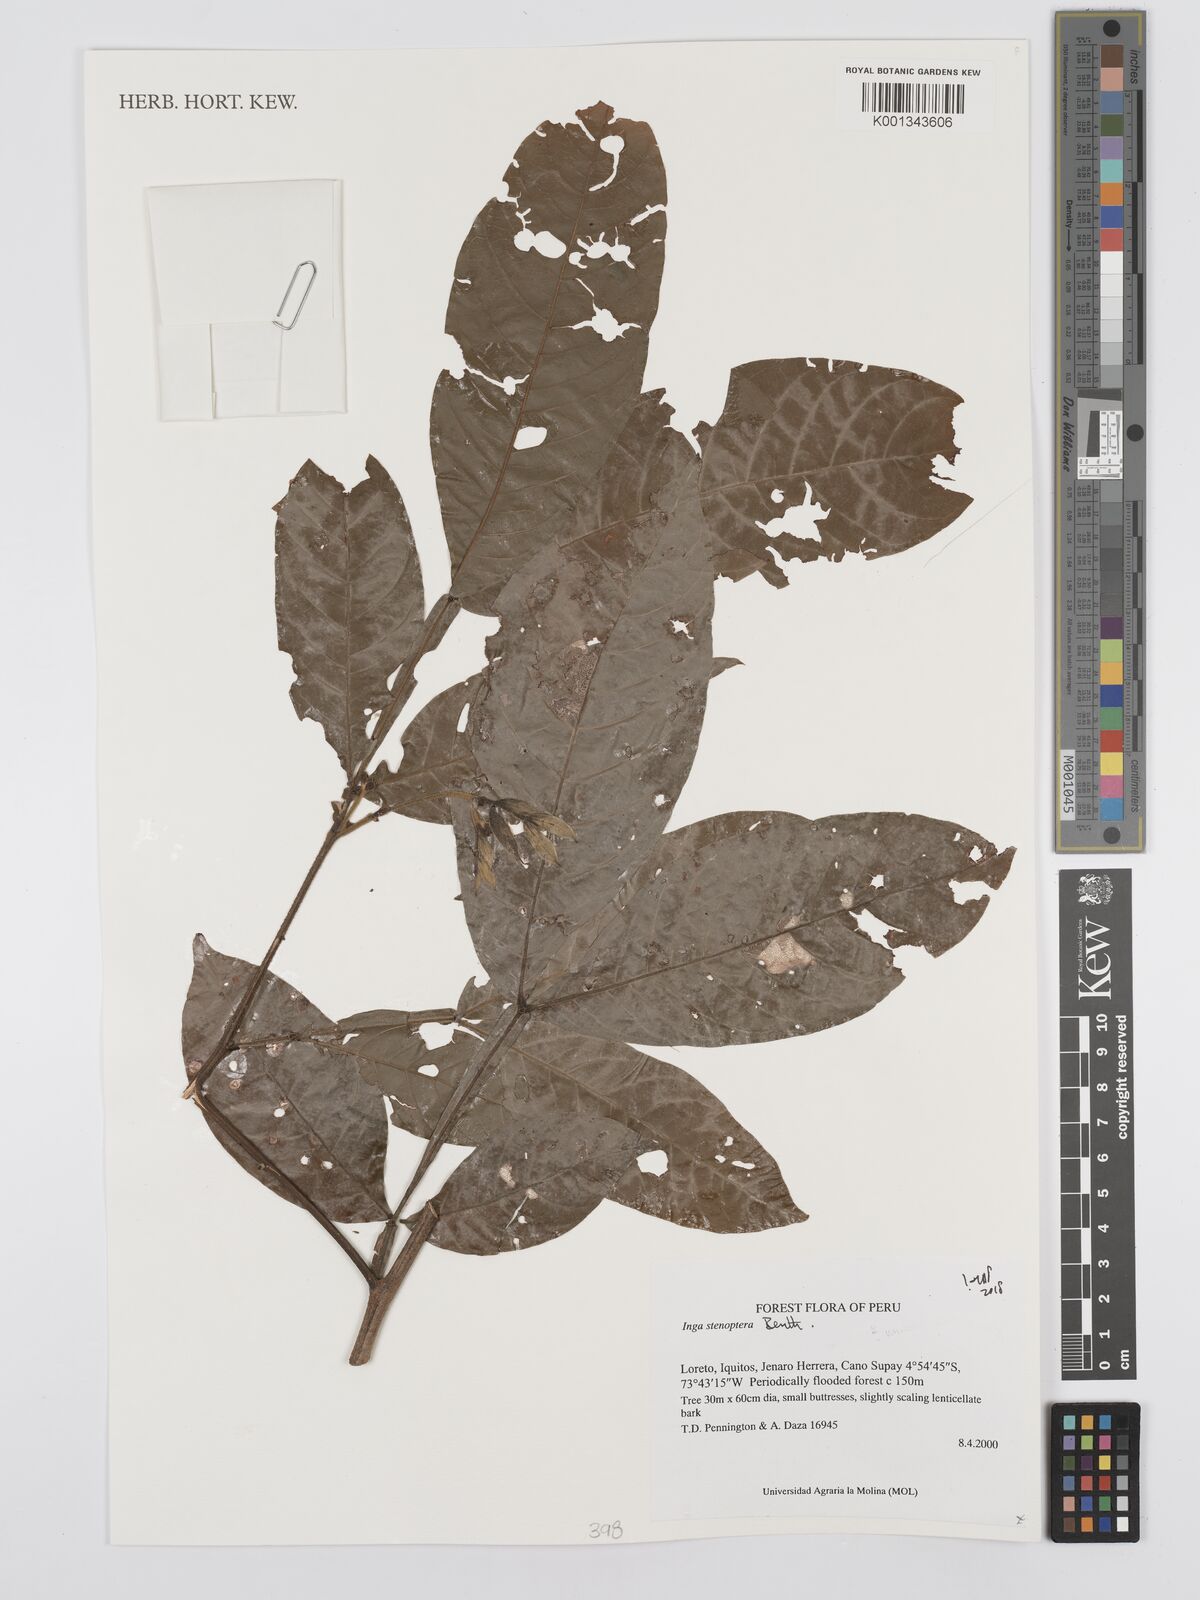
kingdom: Plantae
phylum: Tracheophyta
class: Magnoliopsida
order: Fabales
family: Fabaceae
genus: Inga
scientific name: Inga stenoptera
